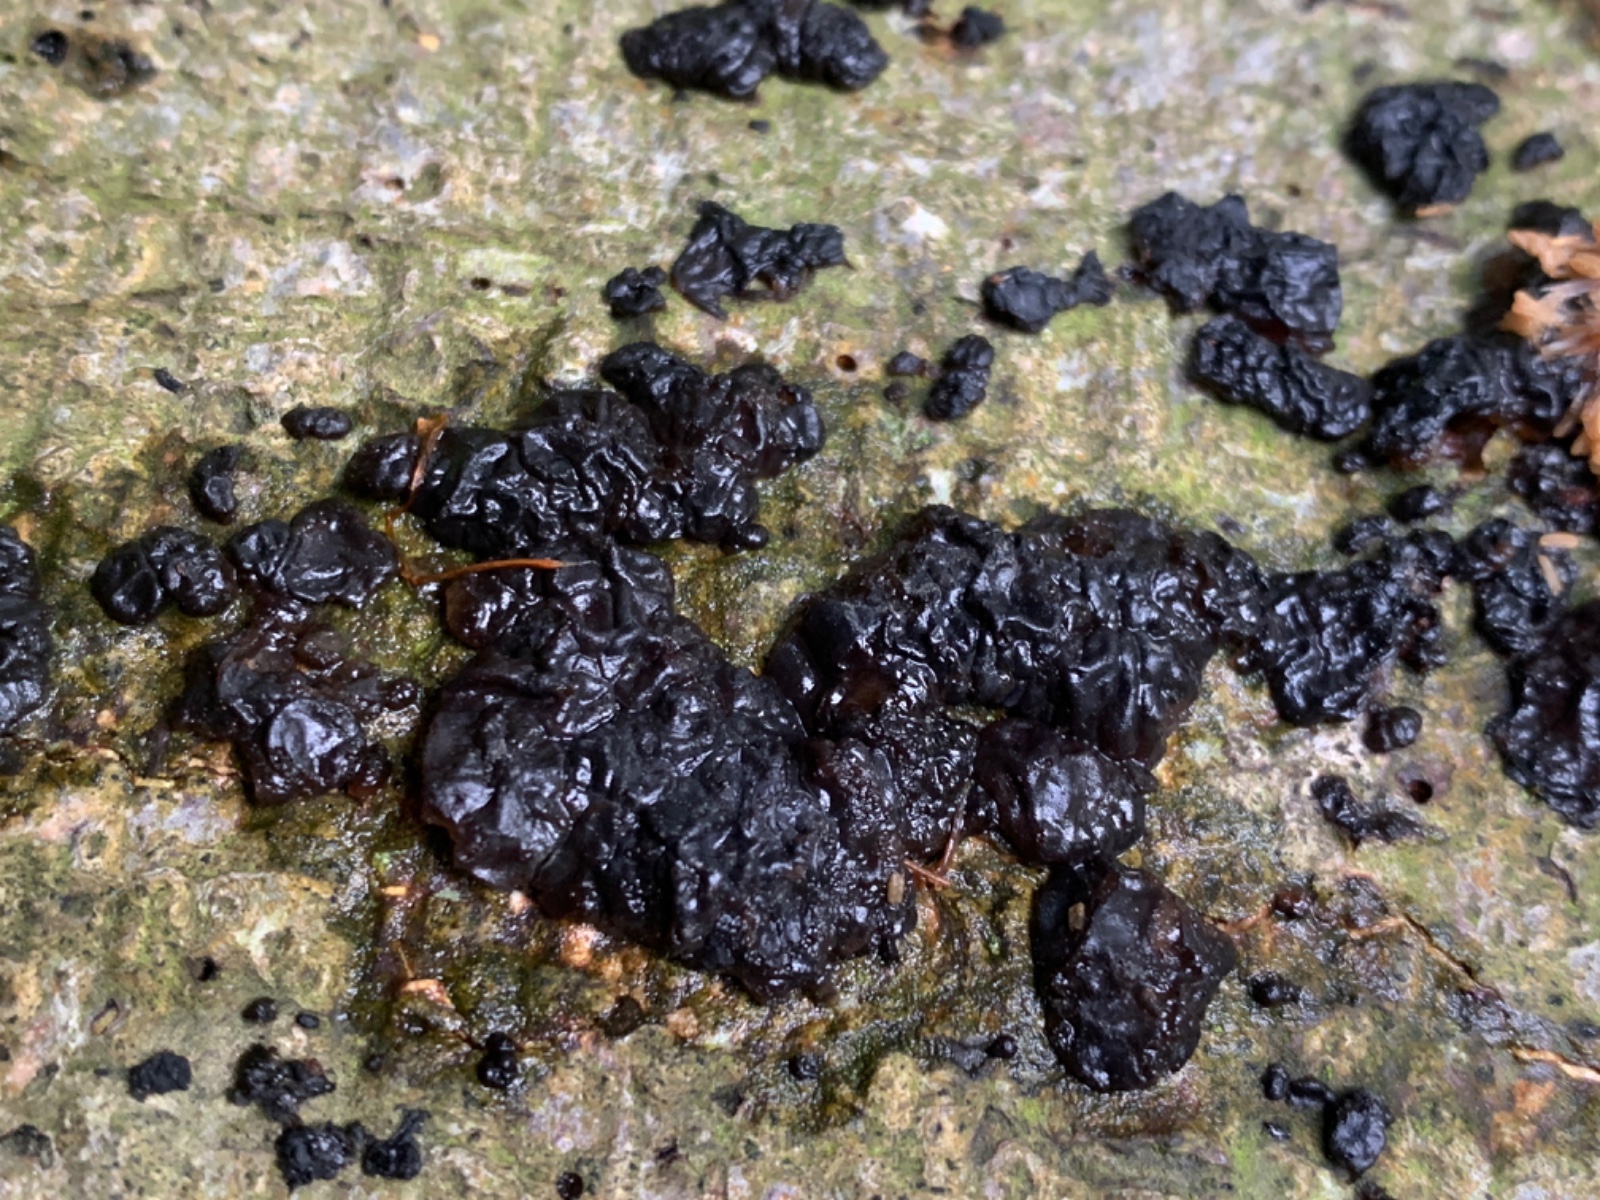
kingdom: Fungi
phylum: Basidiomycota
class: Agaricomycetes
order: Auriculariales
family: Auriculariaceae
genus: Exidia
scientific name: Exidia nigricans
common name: almindelig bævretop
